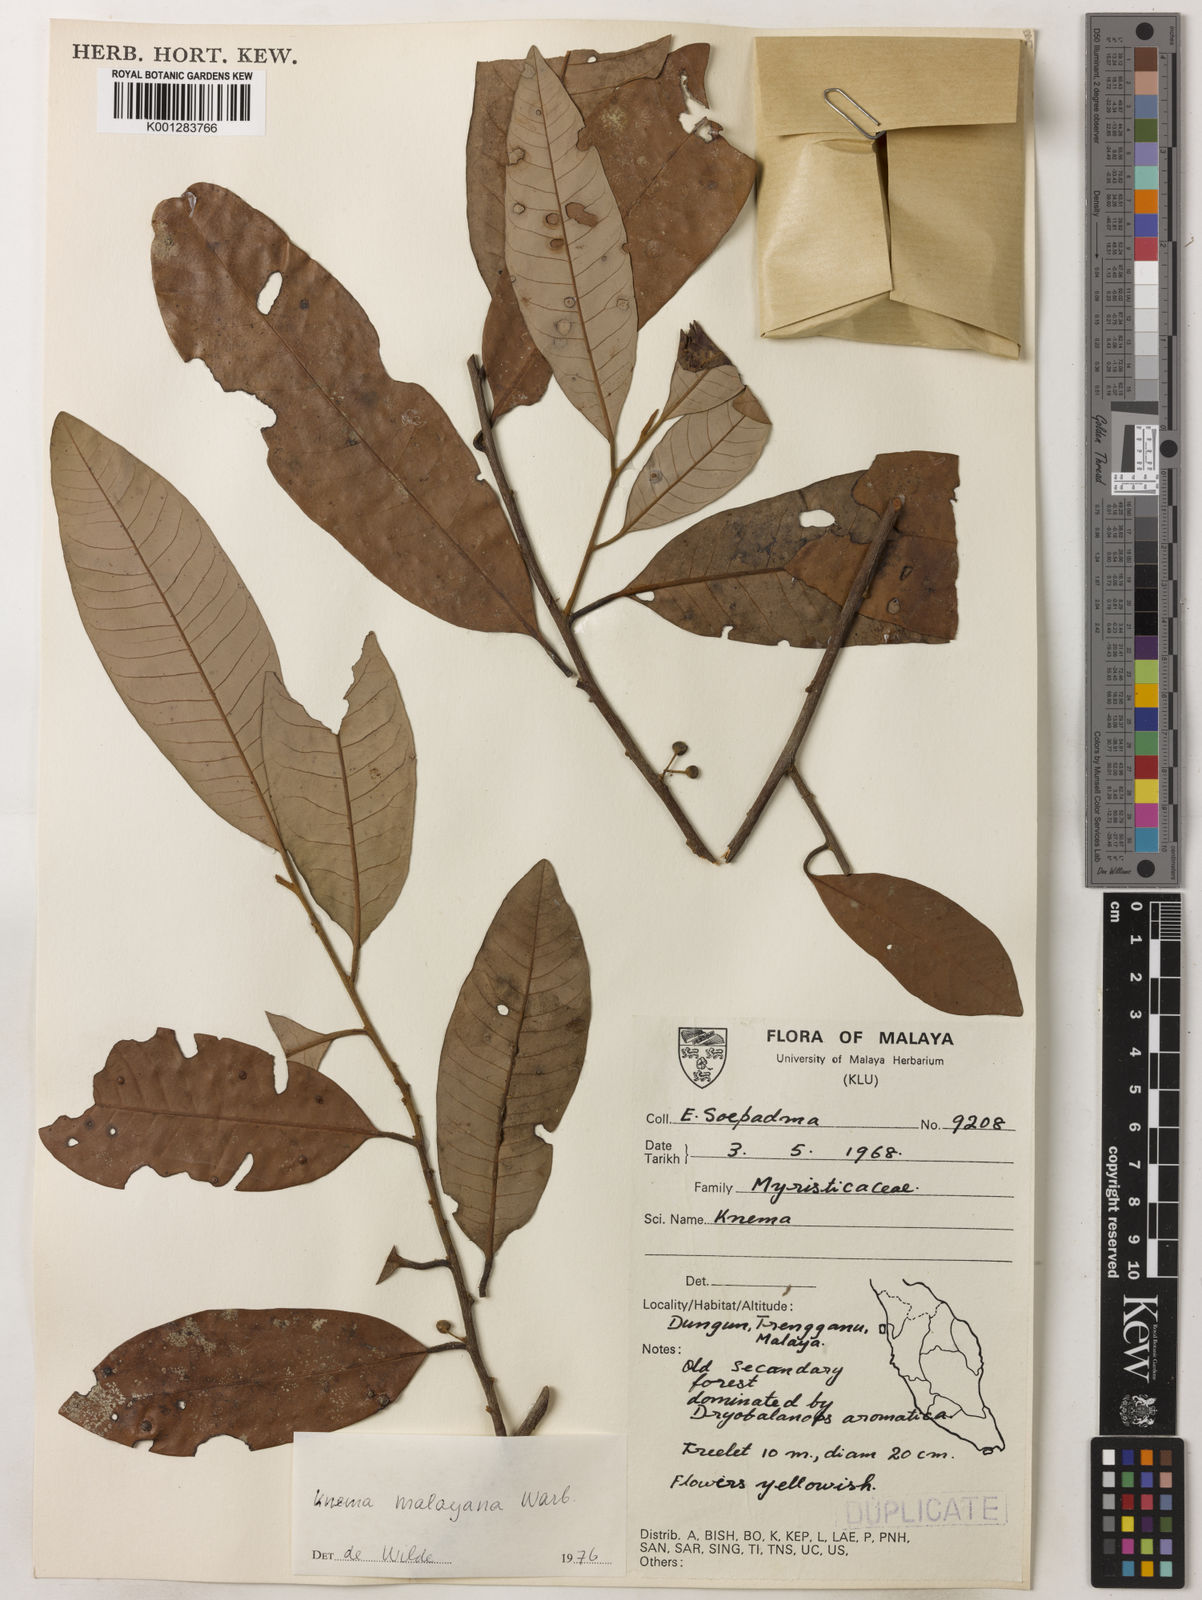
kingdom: Plantae
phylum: Tracheophyta
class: Magnoliopsida
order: Magnoliales
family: Myristicaceae
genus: Knema
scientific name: Knema malayana
